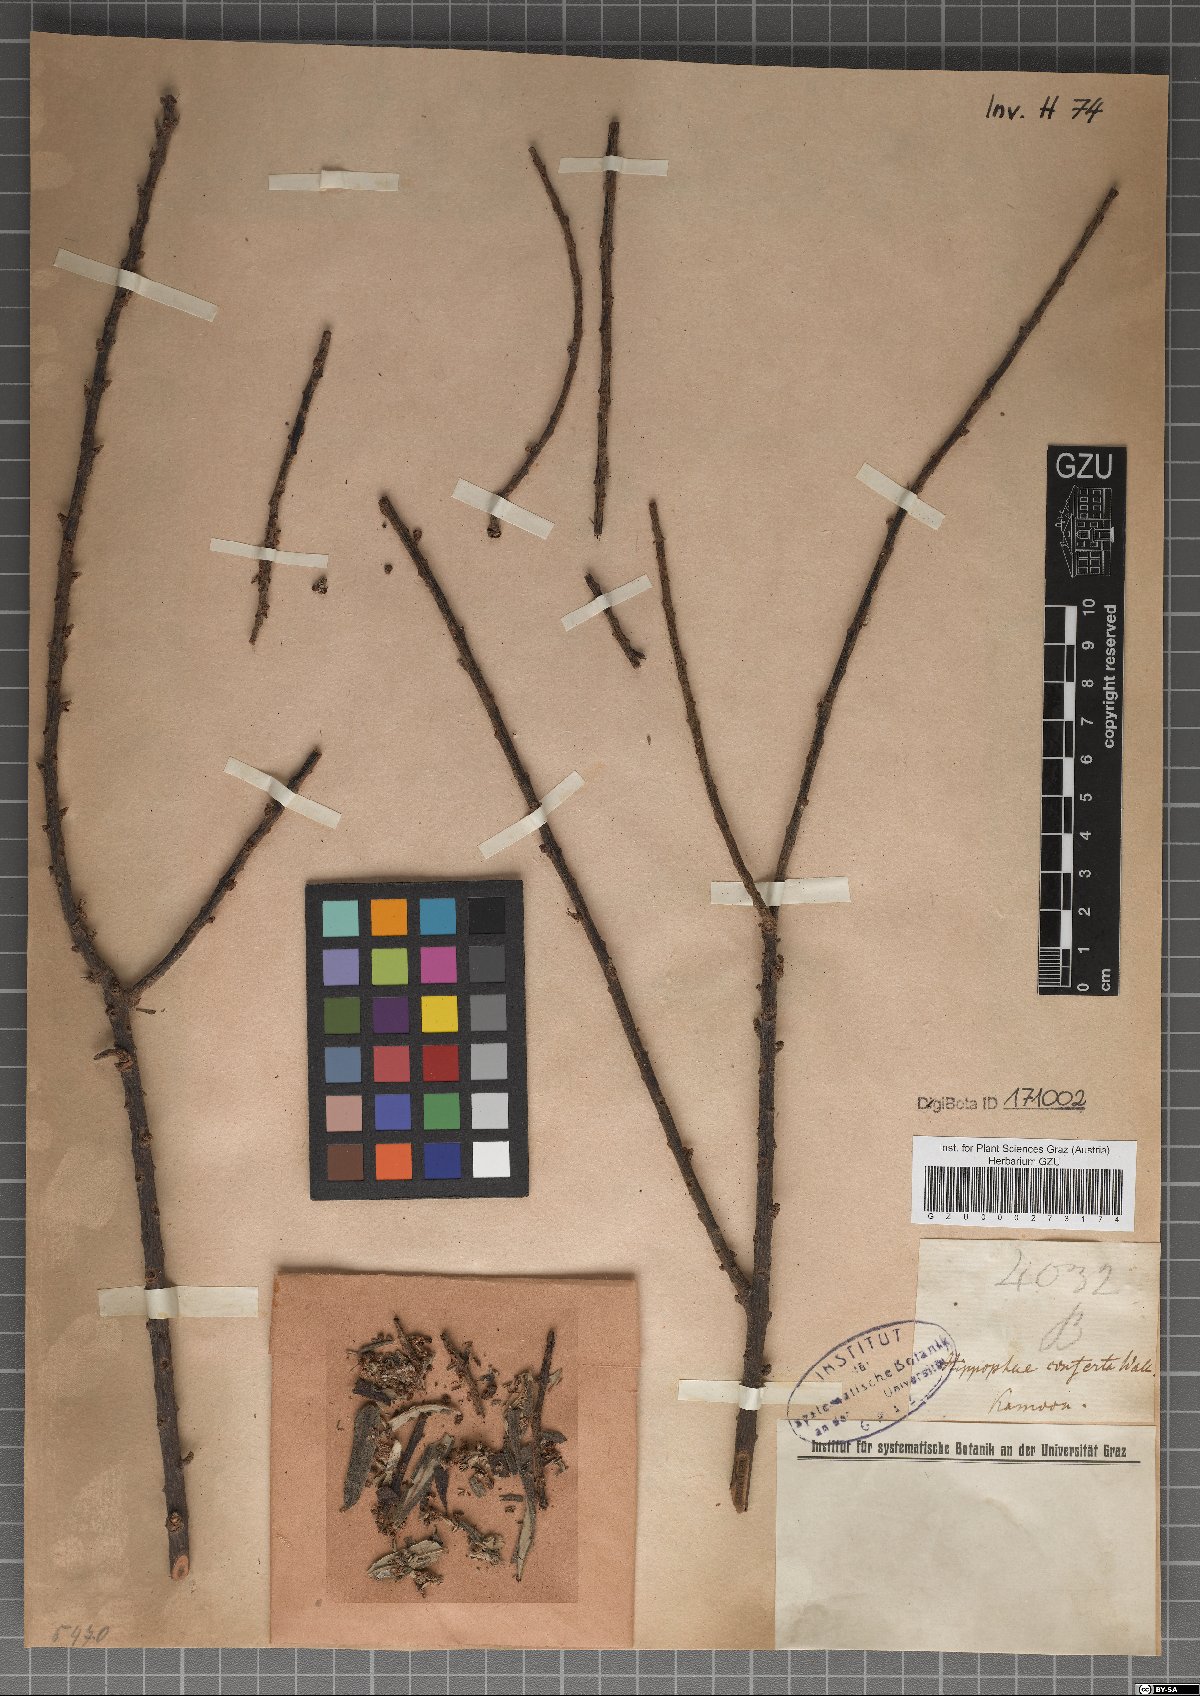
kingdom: Plantae
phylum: Tracheophyta
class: Magnoliopsida
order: Rosales
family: Elaeagnaceae
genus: Hippophae
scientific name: Hippophae salicifolia
